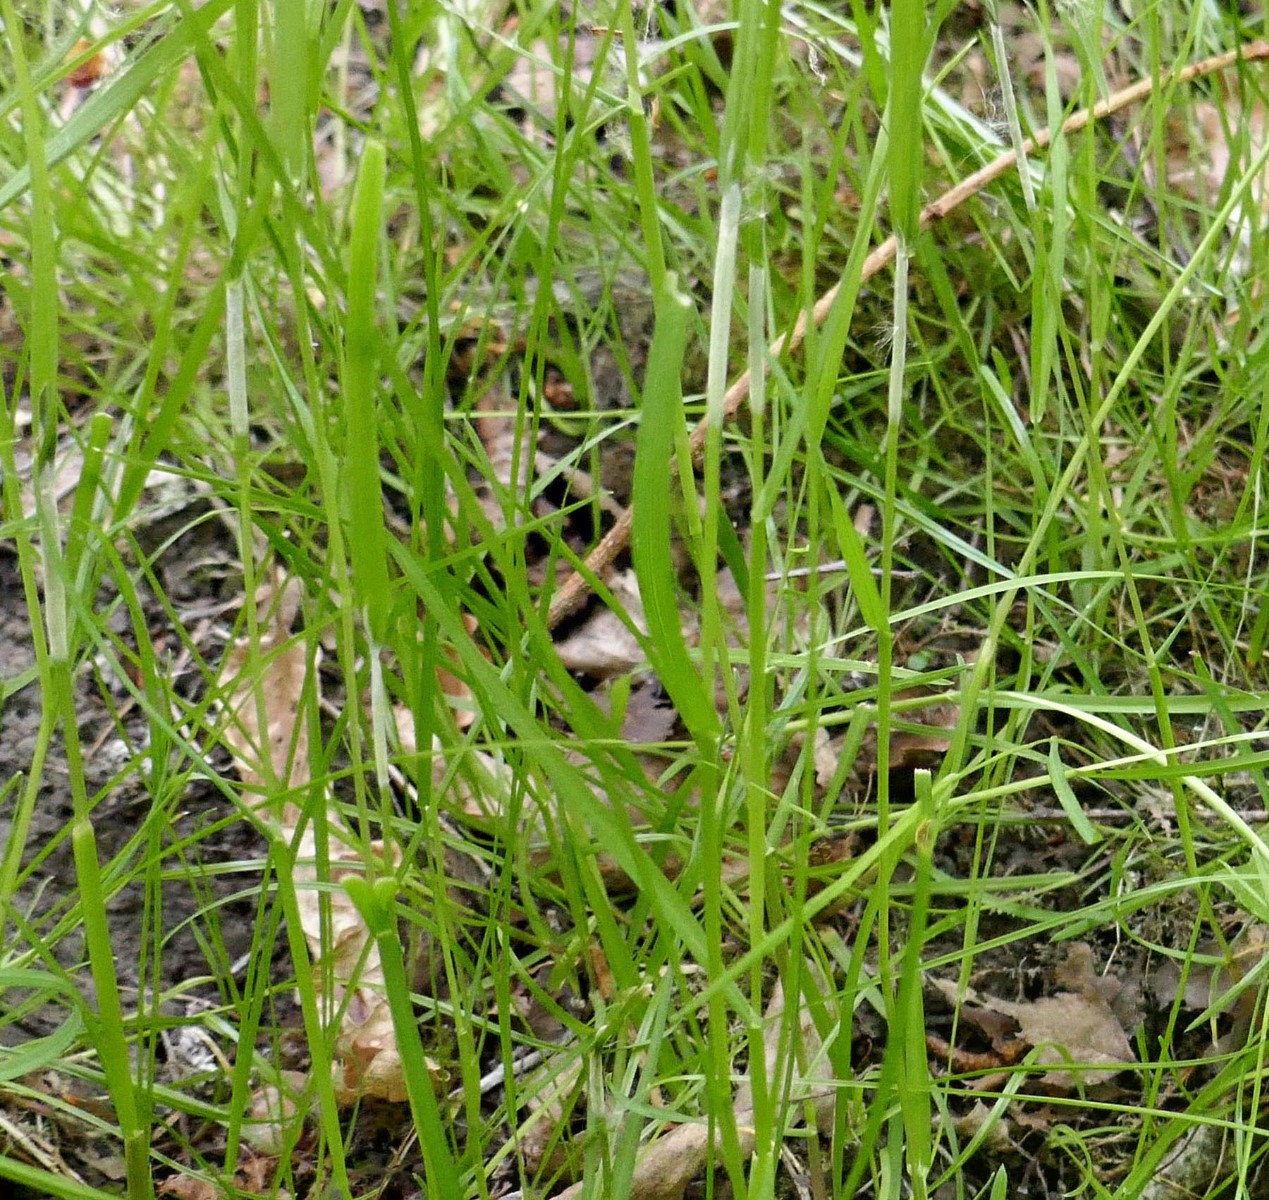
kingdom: Fungi
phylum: Ascomycota
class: Sordariomycetes
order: Hypocreales
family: Clavicipitaceae
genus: Epichloe
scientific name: Epichloe typhina
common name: almindelig kernerør
